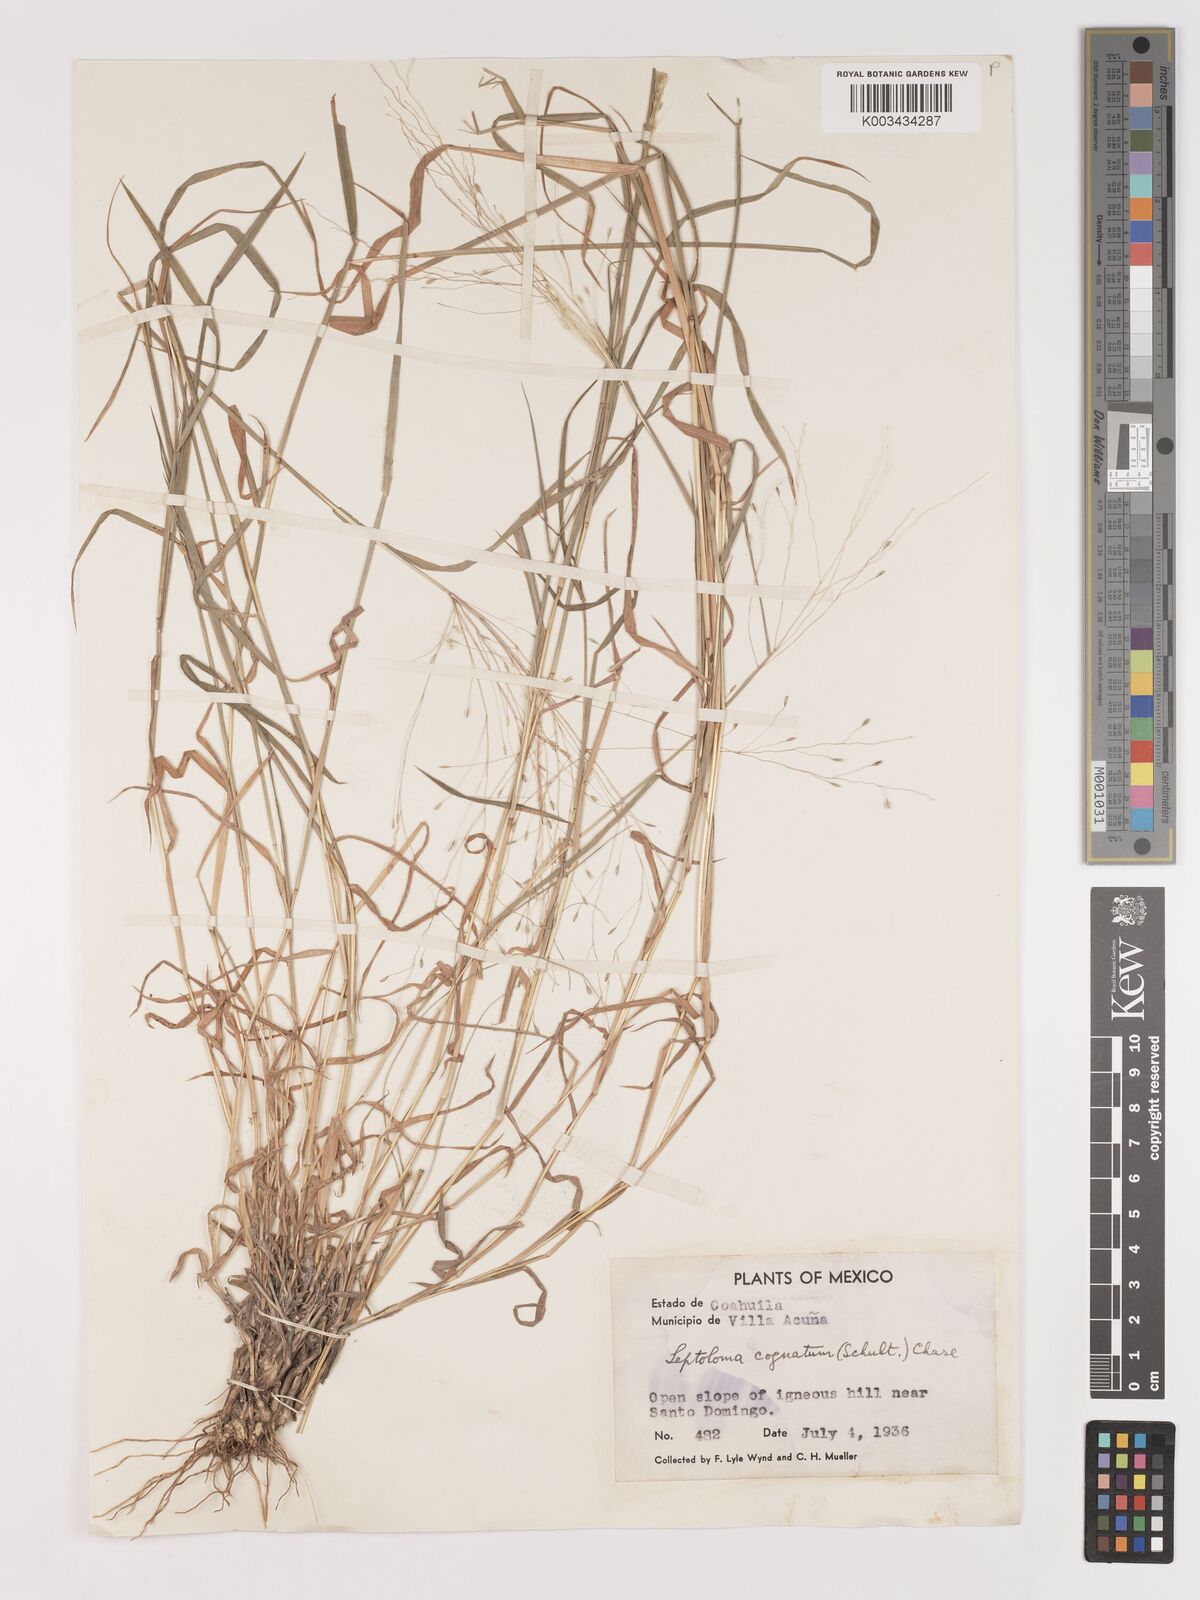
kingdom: Plantae
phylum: Tracheophyta
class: Liliopsida
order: Poales
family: Poaceae
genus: Digitaria
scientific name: Digitaria cognata
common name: Fall witchgrass
